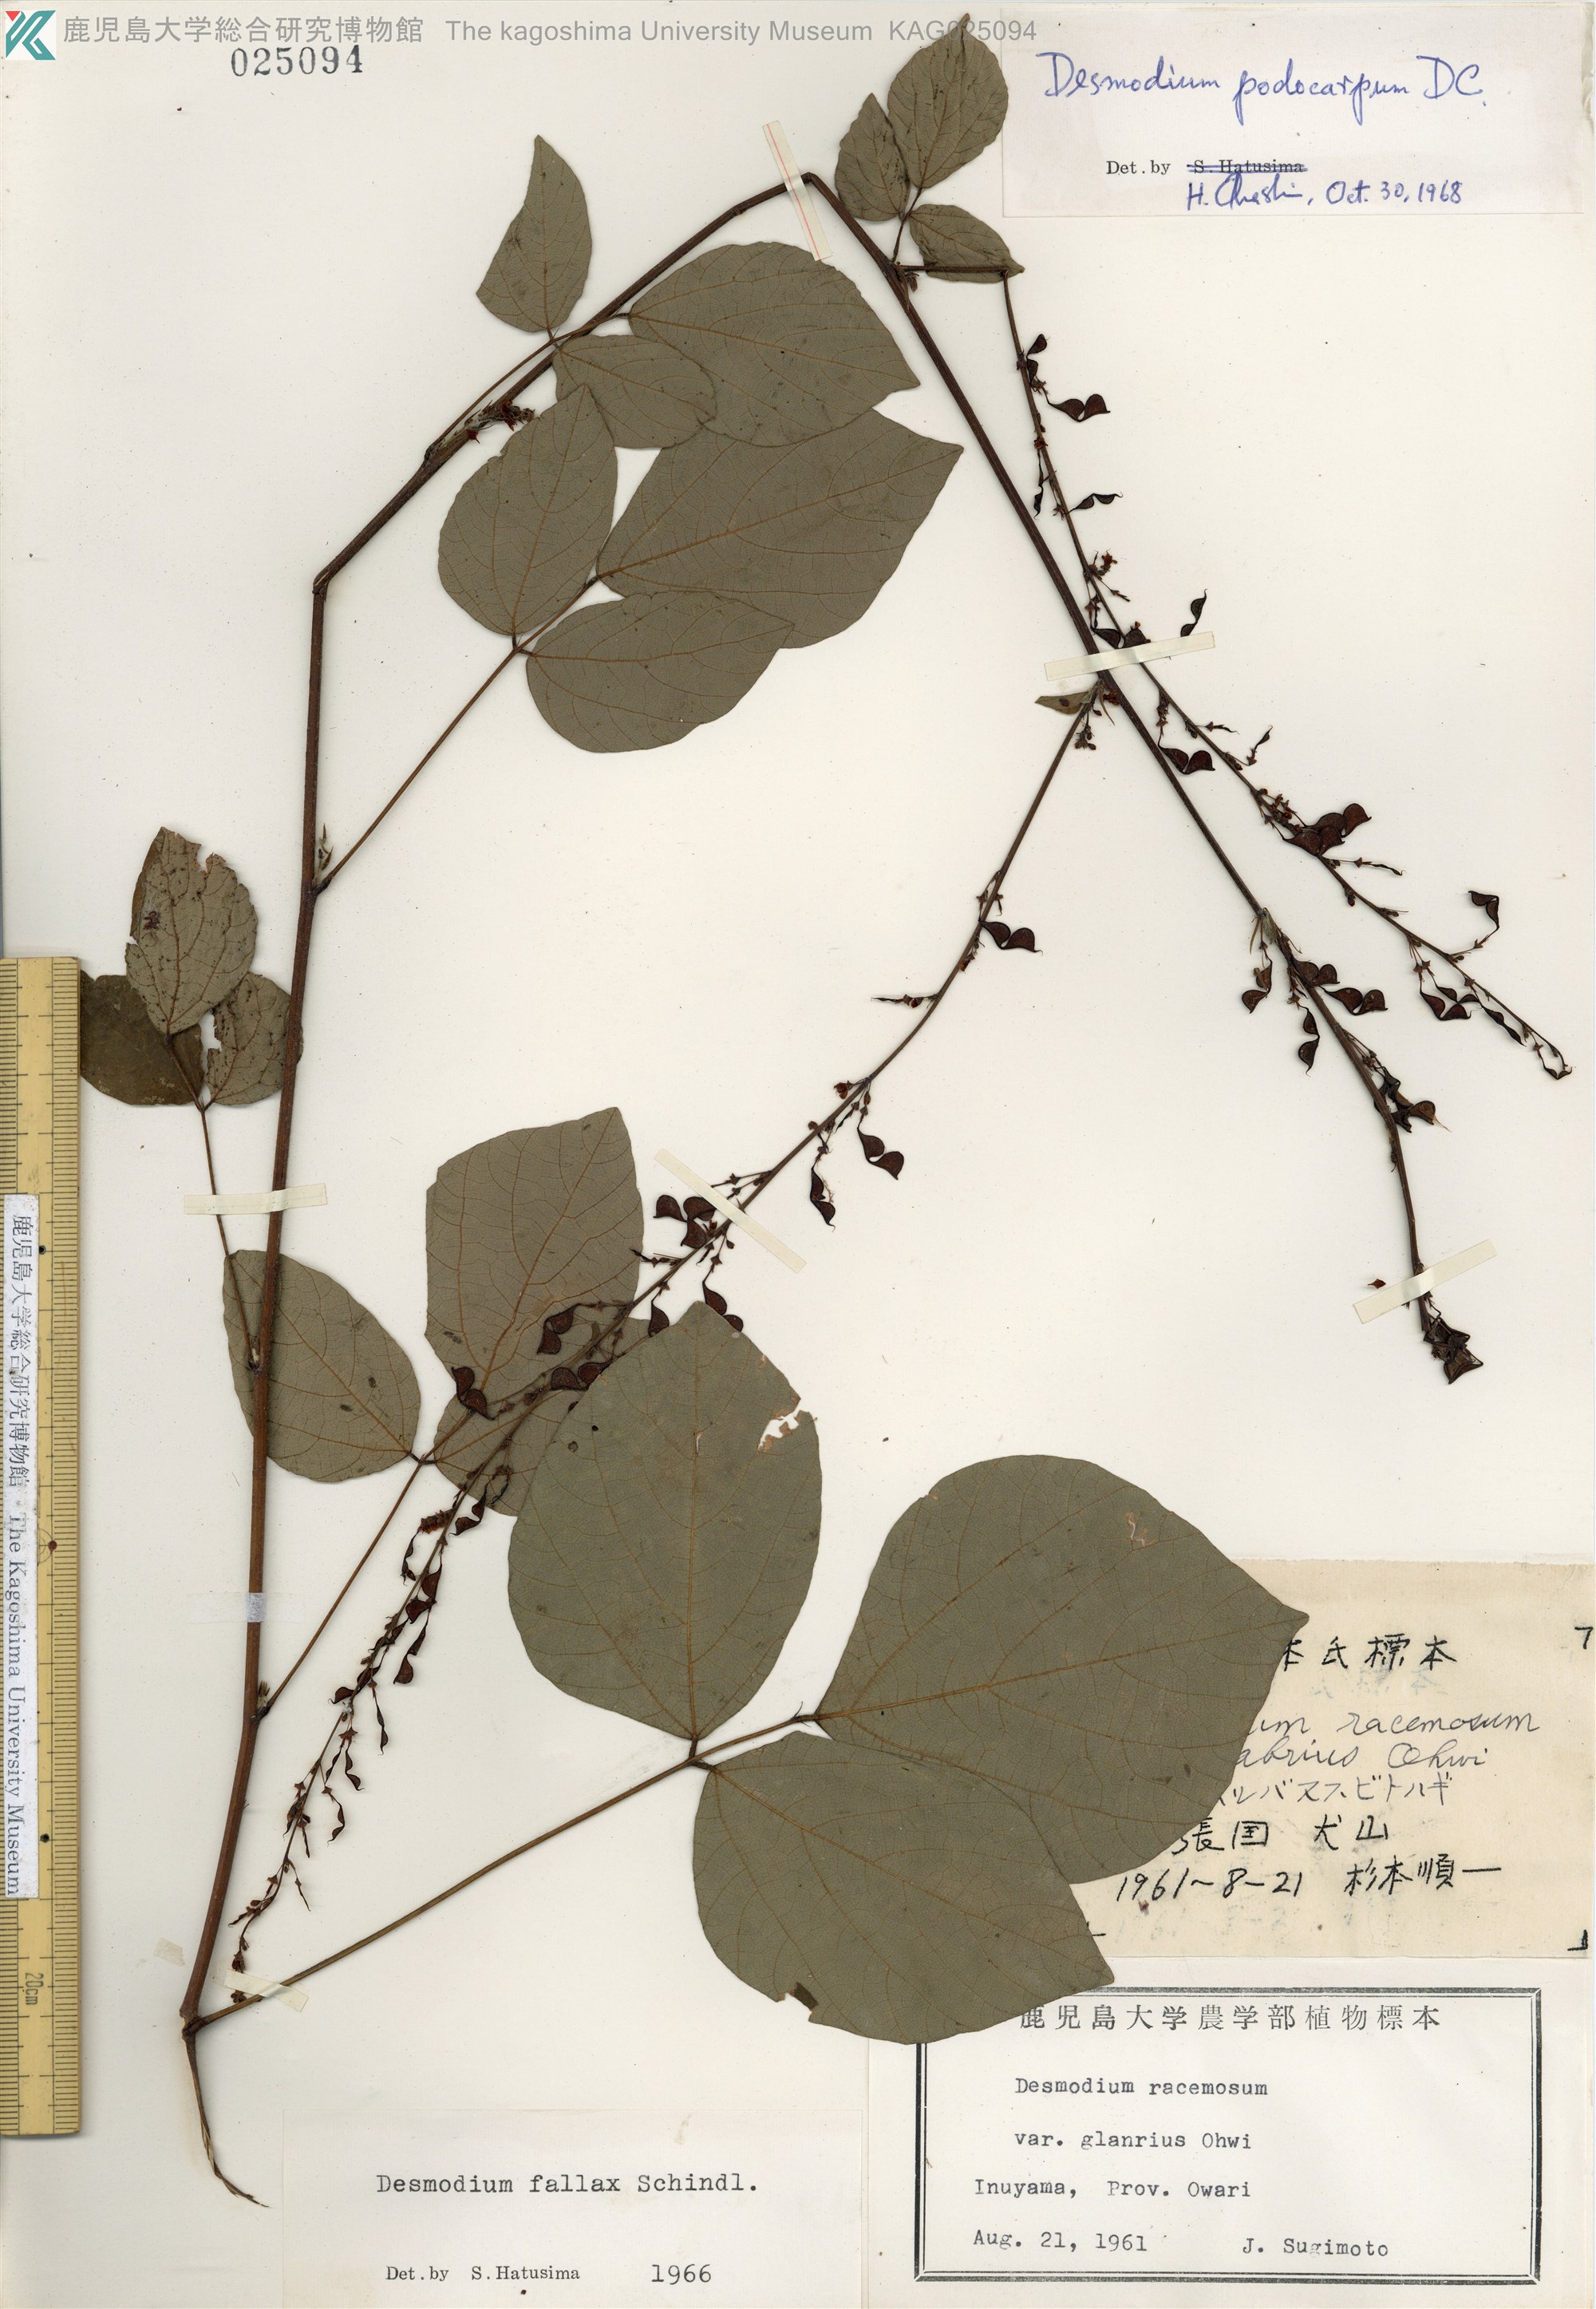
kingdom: Plantae
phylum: Tracheophyta
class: Magnoliopsida
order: Fabales
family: Fabaceae
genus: Hylodesmum
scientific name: Hylodesmum podocarpum
